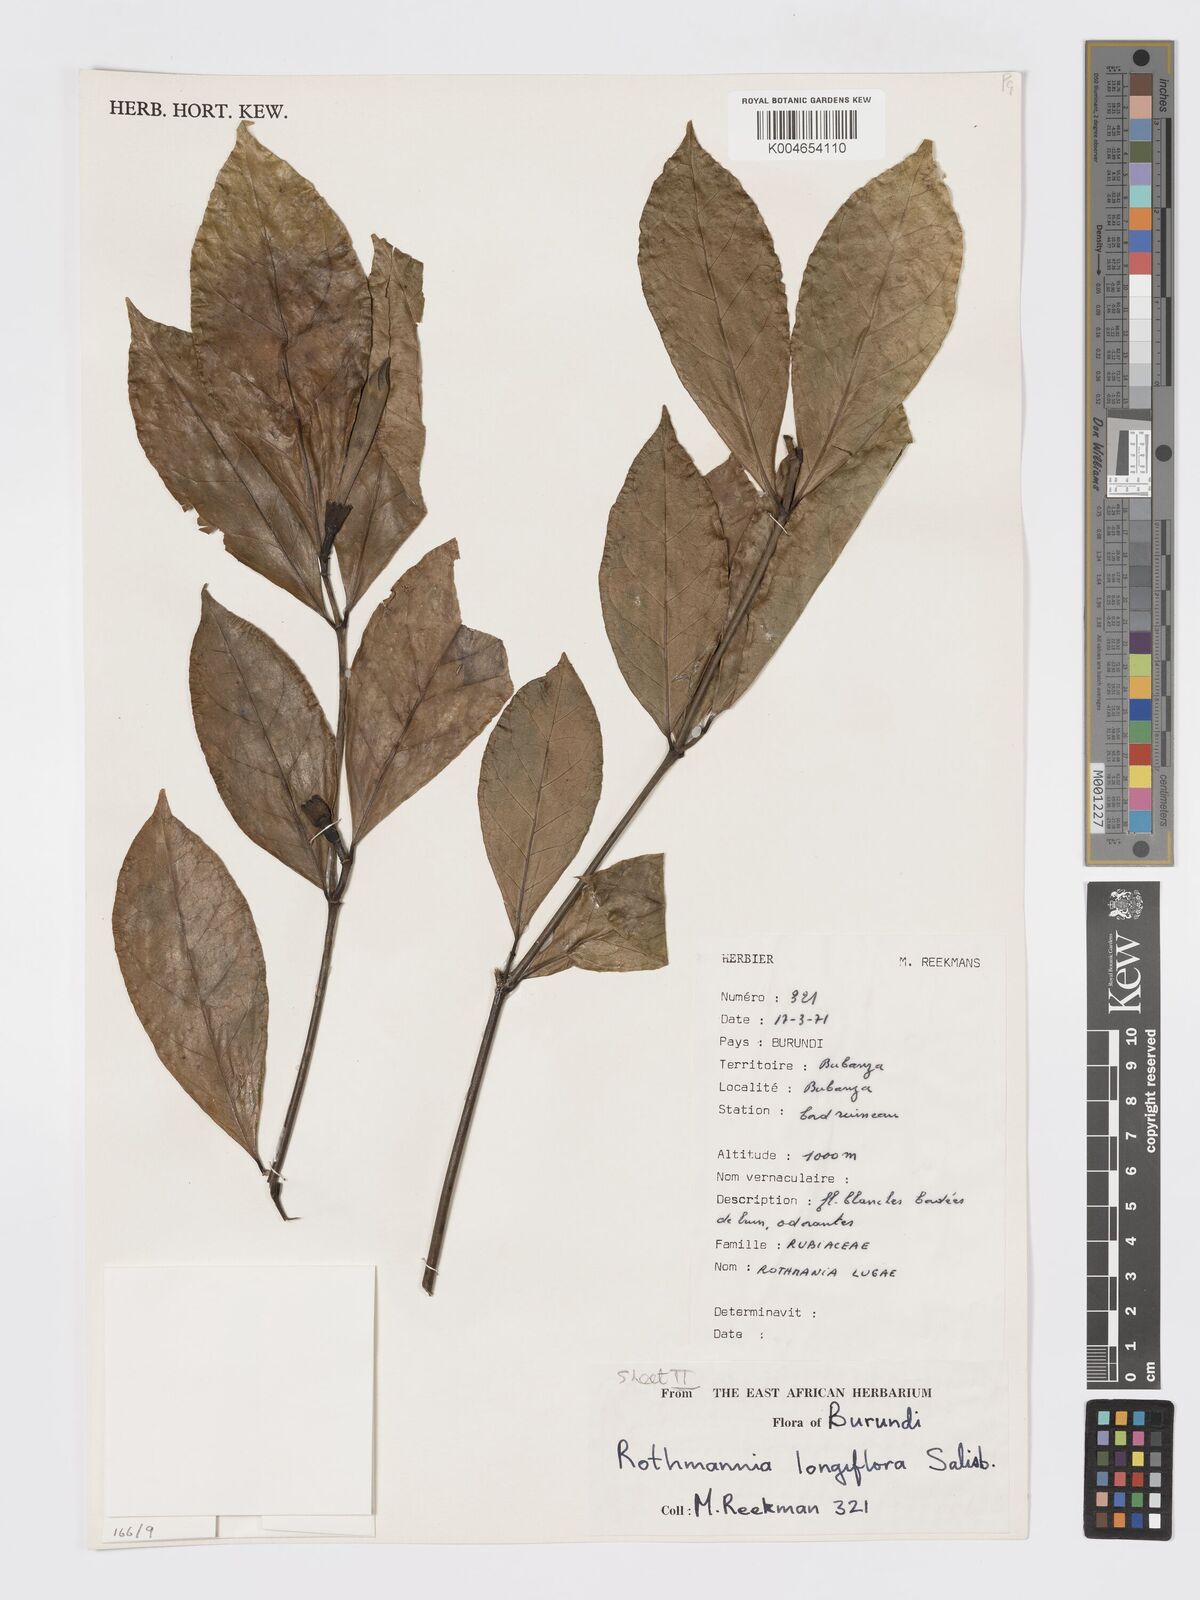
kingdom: Plantae
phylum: Tracheophyta
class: Magnoliopsida
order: Gentianales
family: Rubiaceae
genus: Rothmannia
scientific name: Rothmannia longiflora
